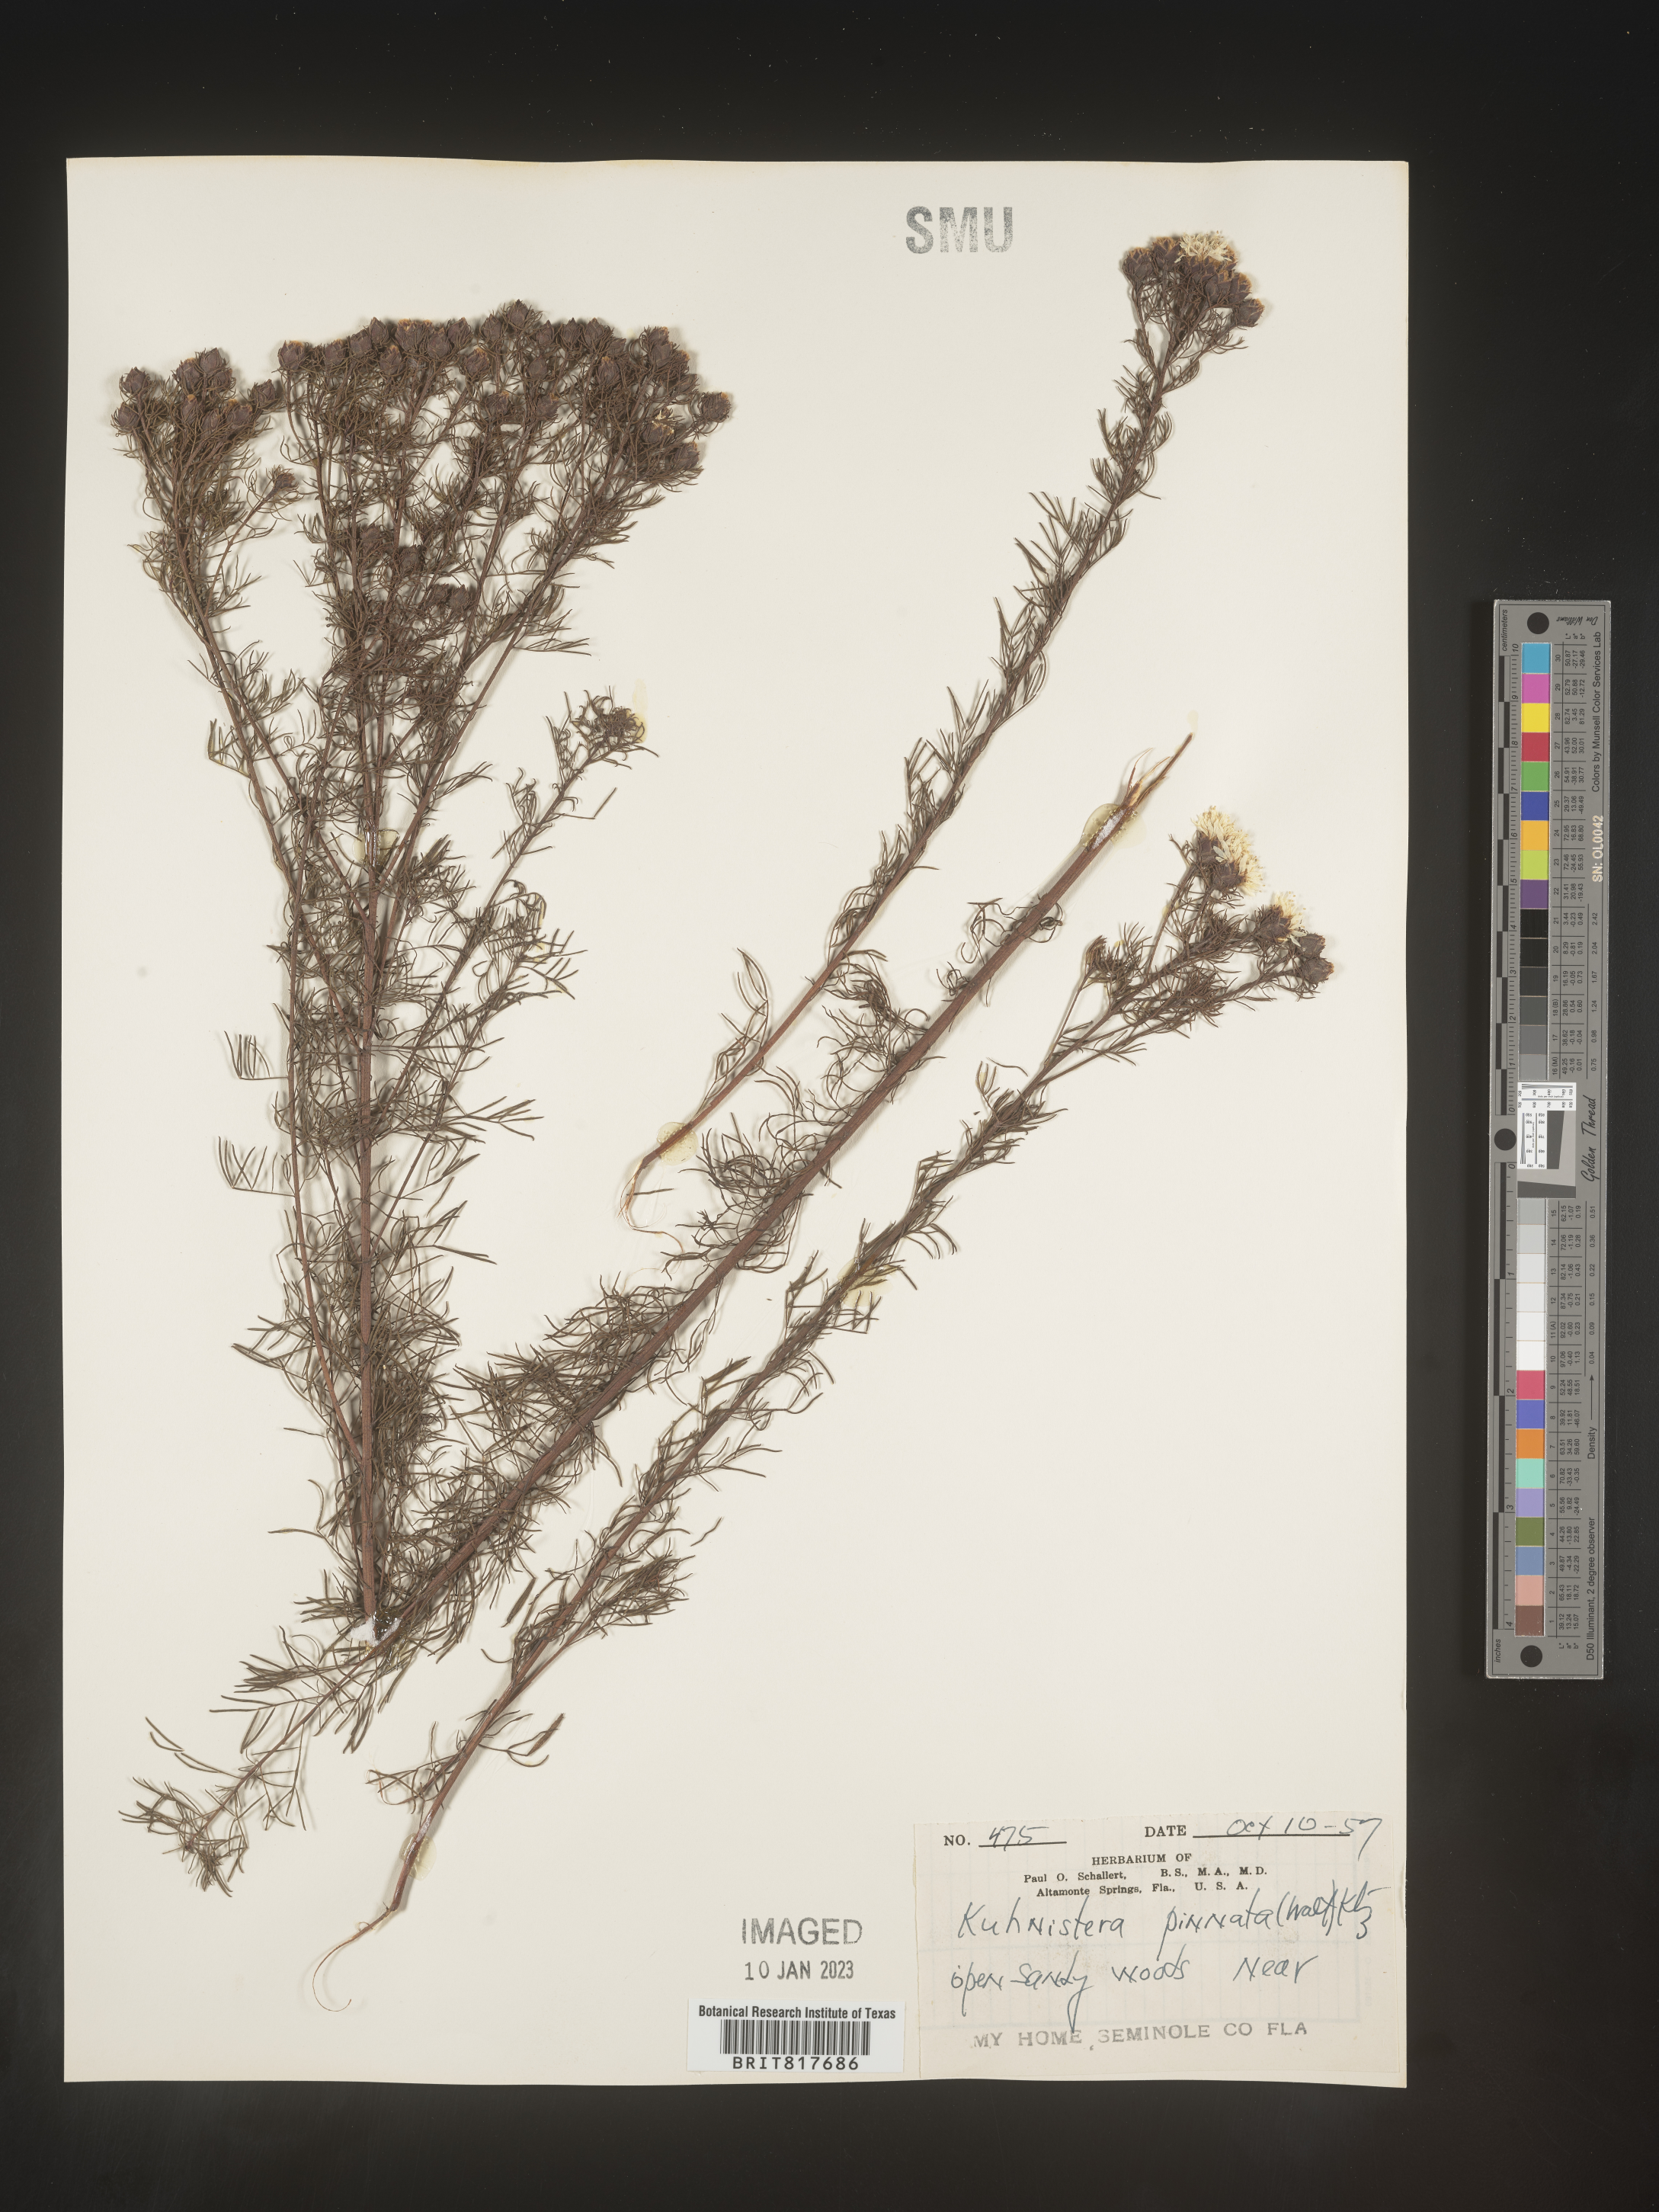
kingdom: Plantae
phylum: Tracheophyta
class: Magnoliopsida
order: Fabales
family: Fabaceae
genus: Dalea
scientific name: Dalea pinnata
